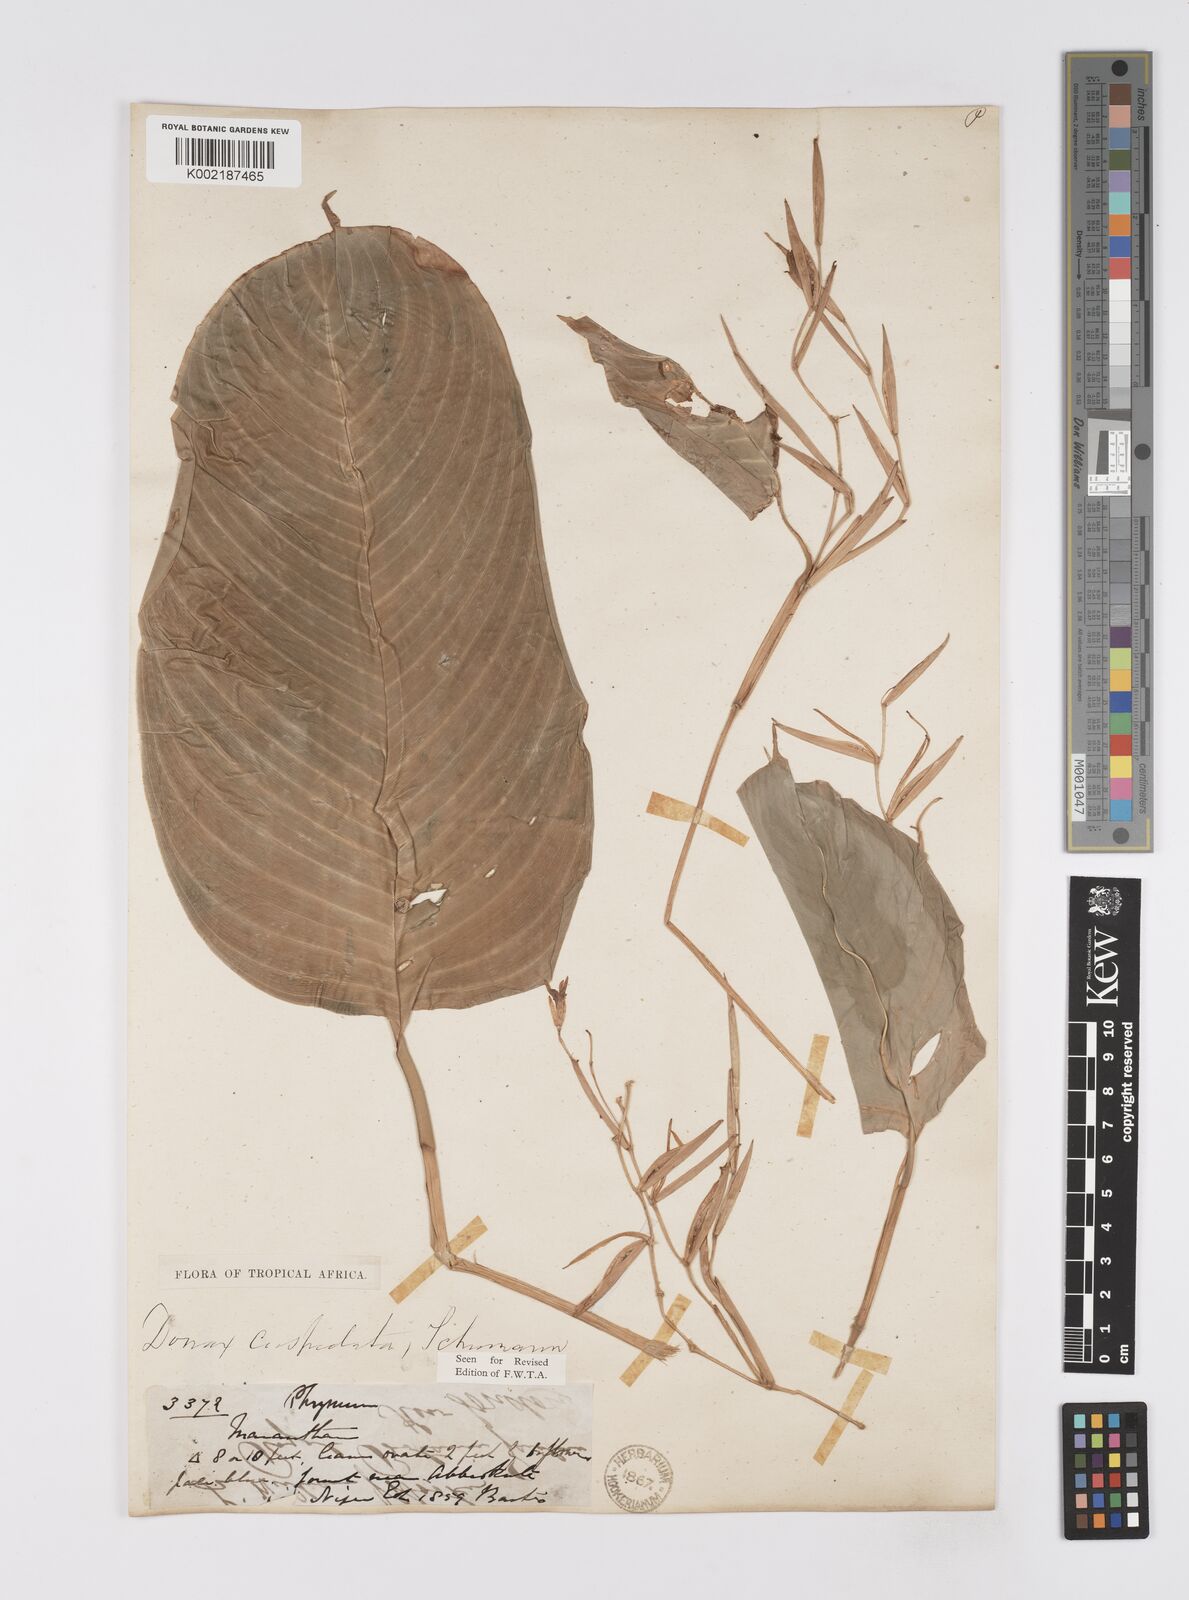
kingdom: Plantae
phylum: Tracheophyta
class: Liliopsida
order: Zingiberales
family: Marantaceae
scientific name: Marantaceae
